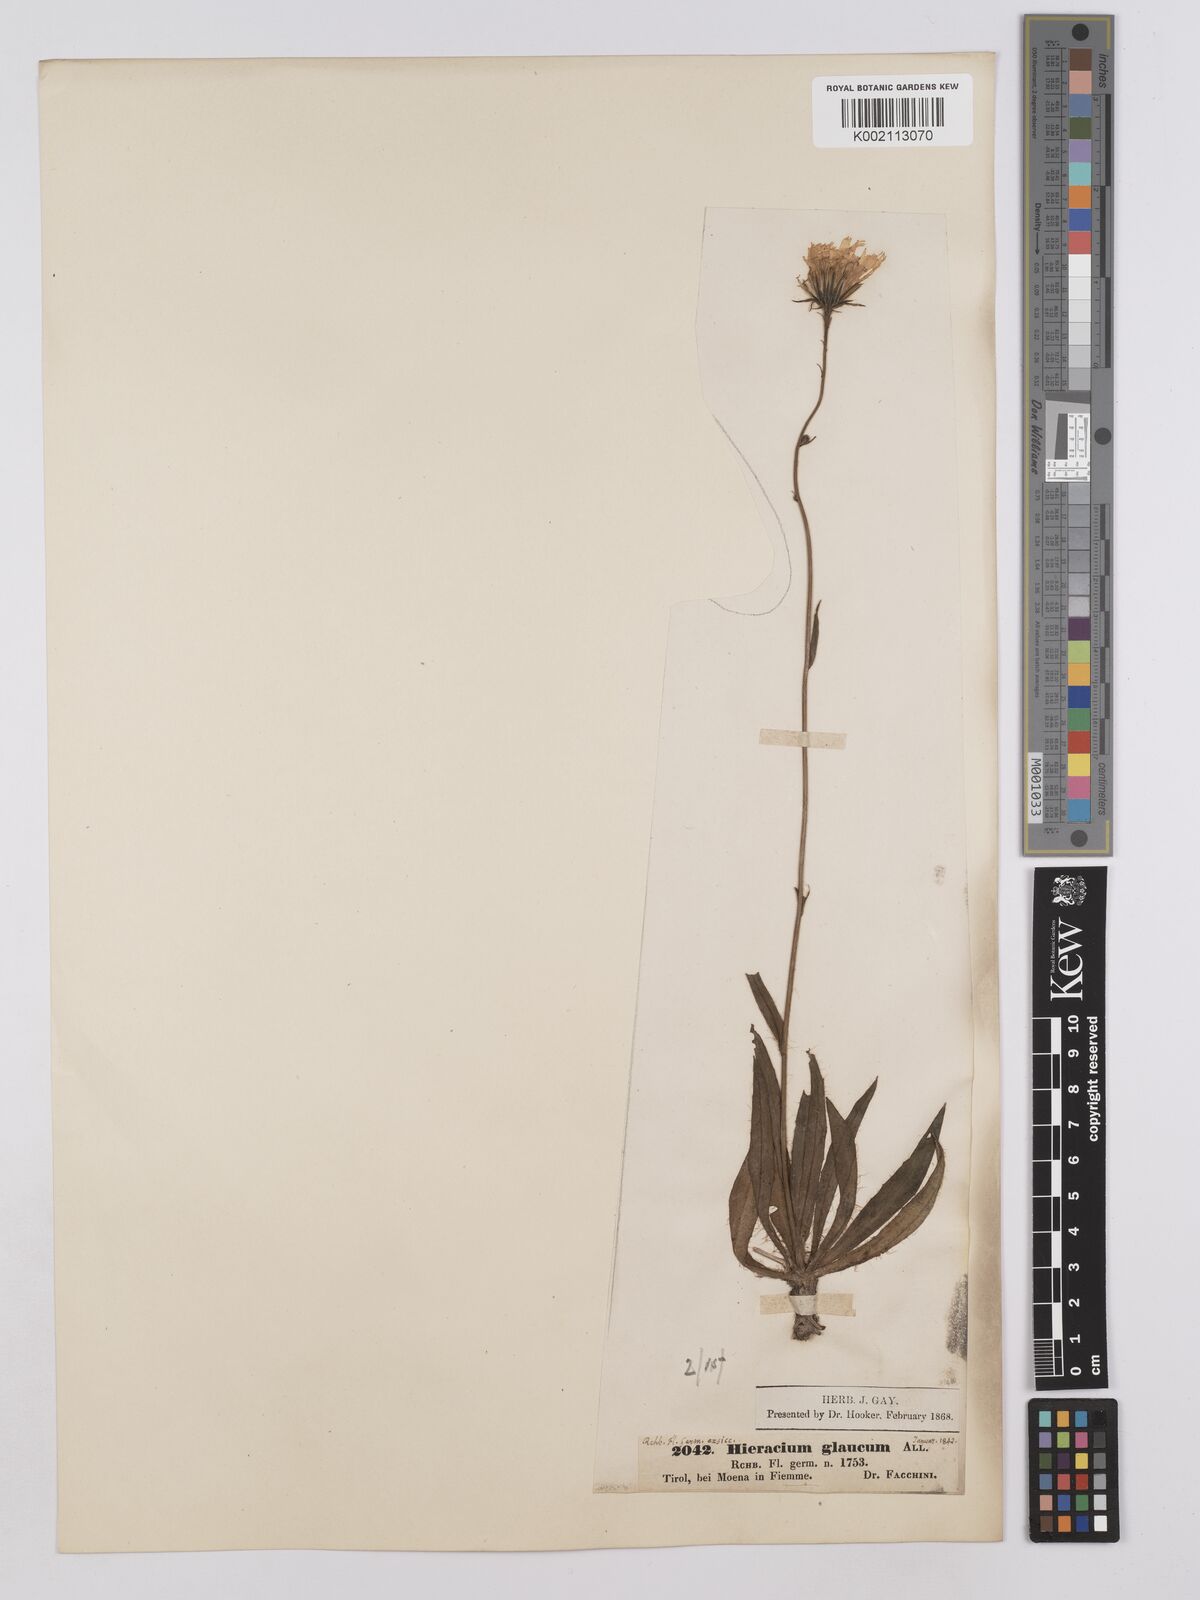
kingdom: Plantae
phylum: Tracheophyta
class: Magnoliopsida
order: Asterales
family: Asteraceae
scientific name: Asteraceae
